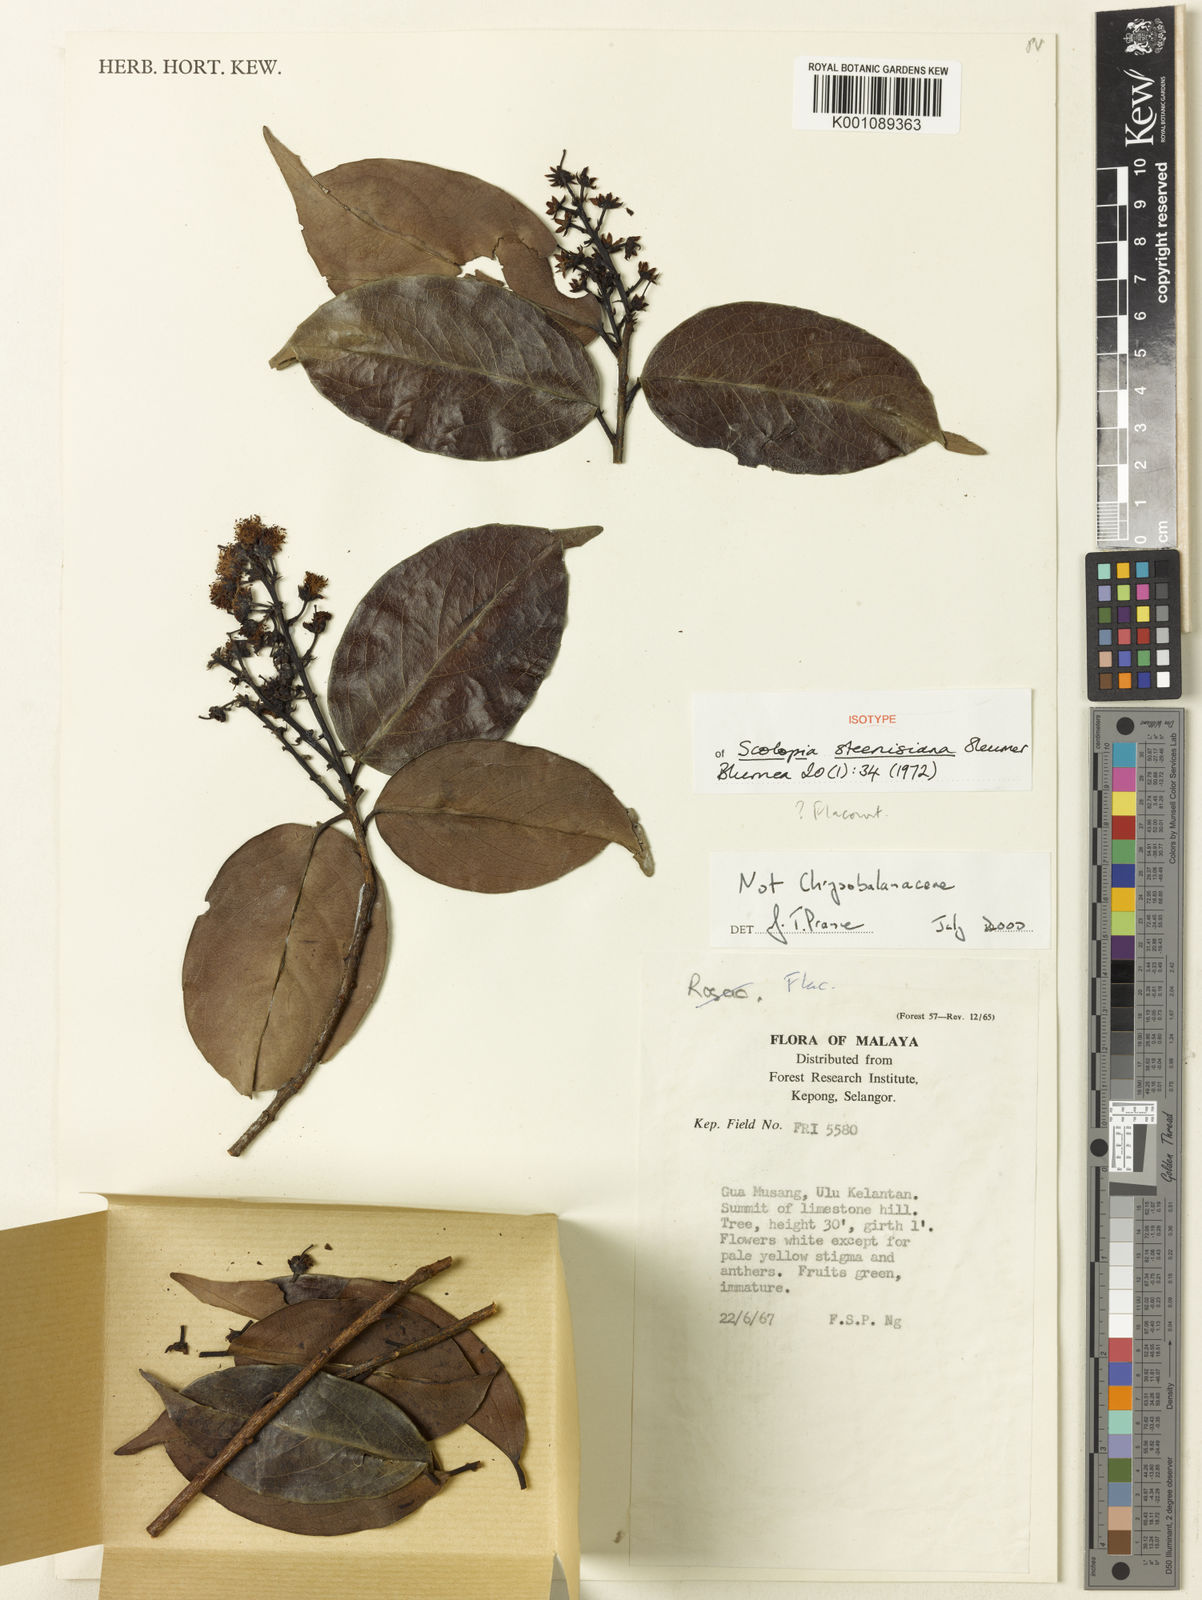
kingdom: Plantae
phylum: Tracheophyta
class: Magnoliopsida
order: Malpighiales
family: Salicaceae
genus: Scolopia
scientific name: Scolopia steenisiana
